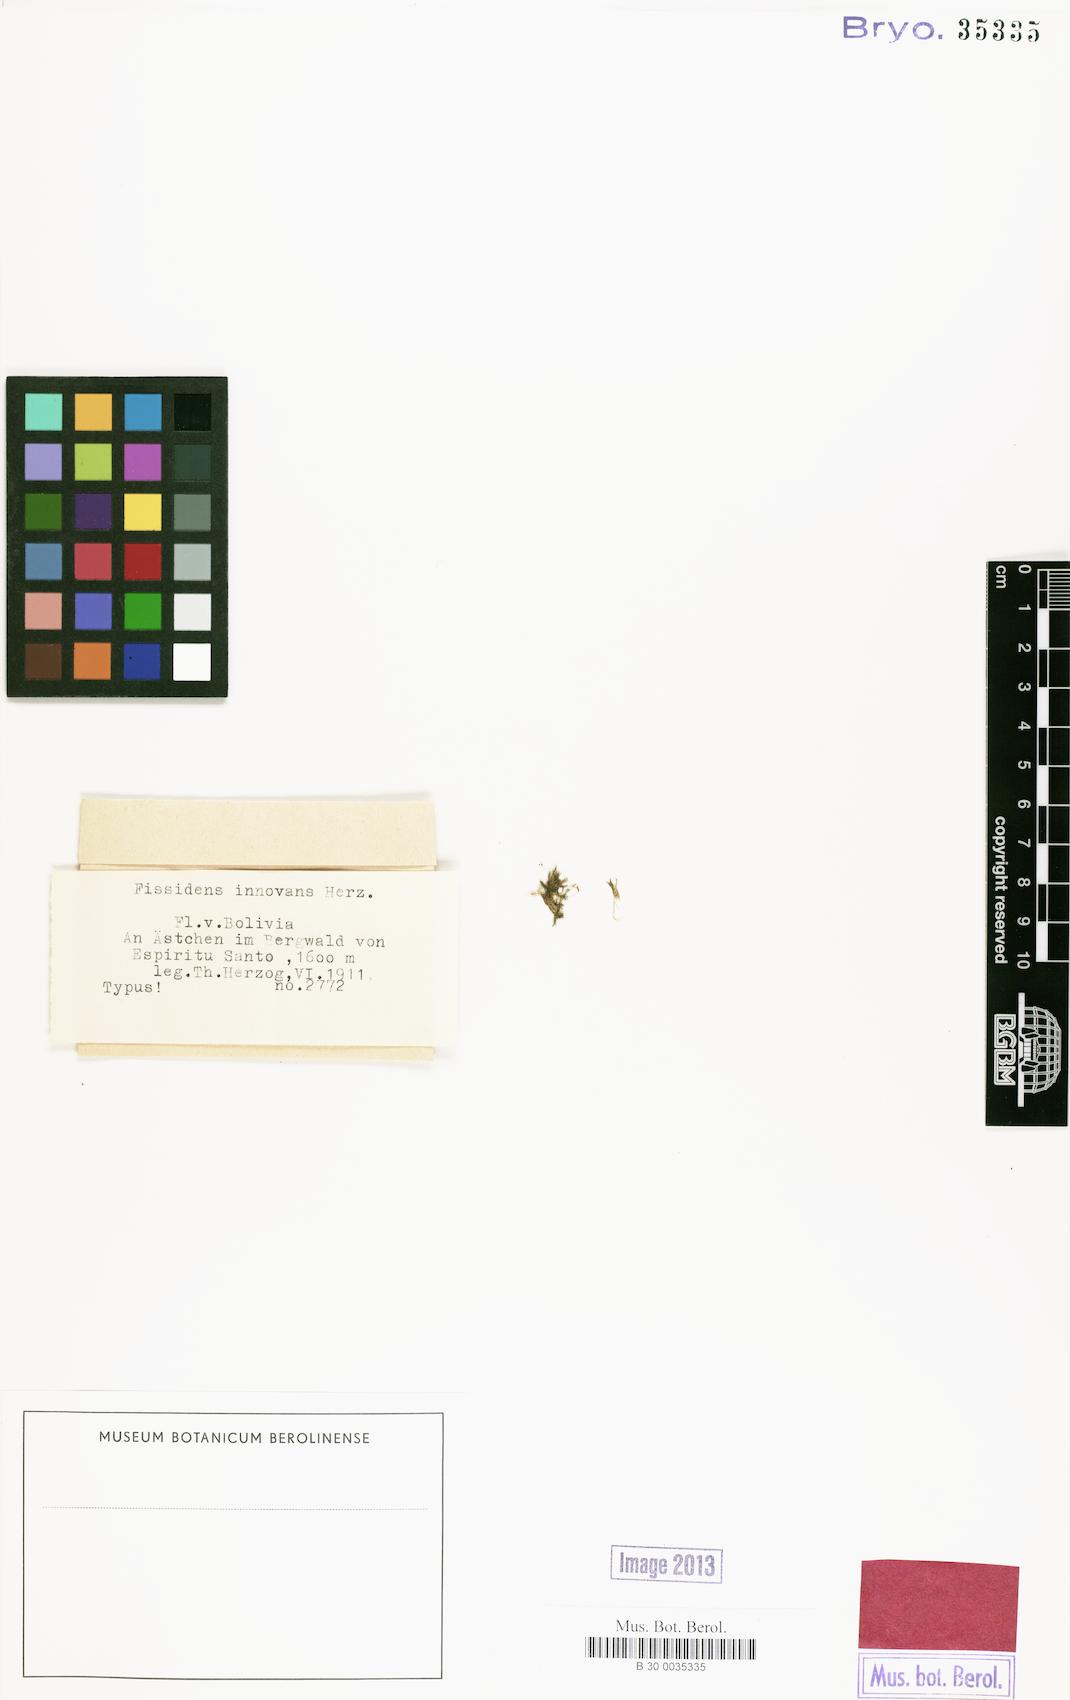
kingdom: Plantae
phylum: Bryophyta
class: Bryopsida
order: Dicranales
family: Fissidentaceae
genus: Fissidens
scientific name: Fissidens weirii
